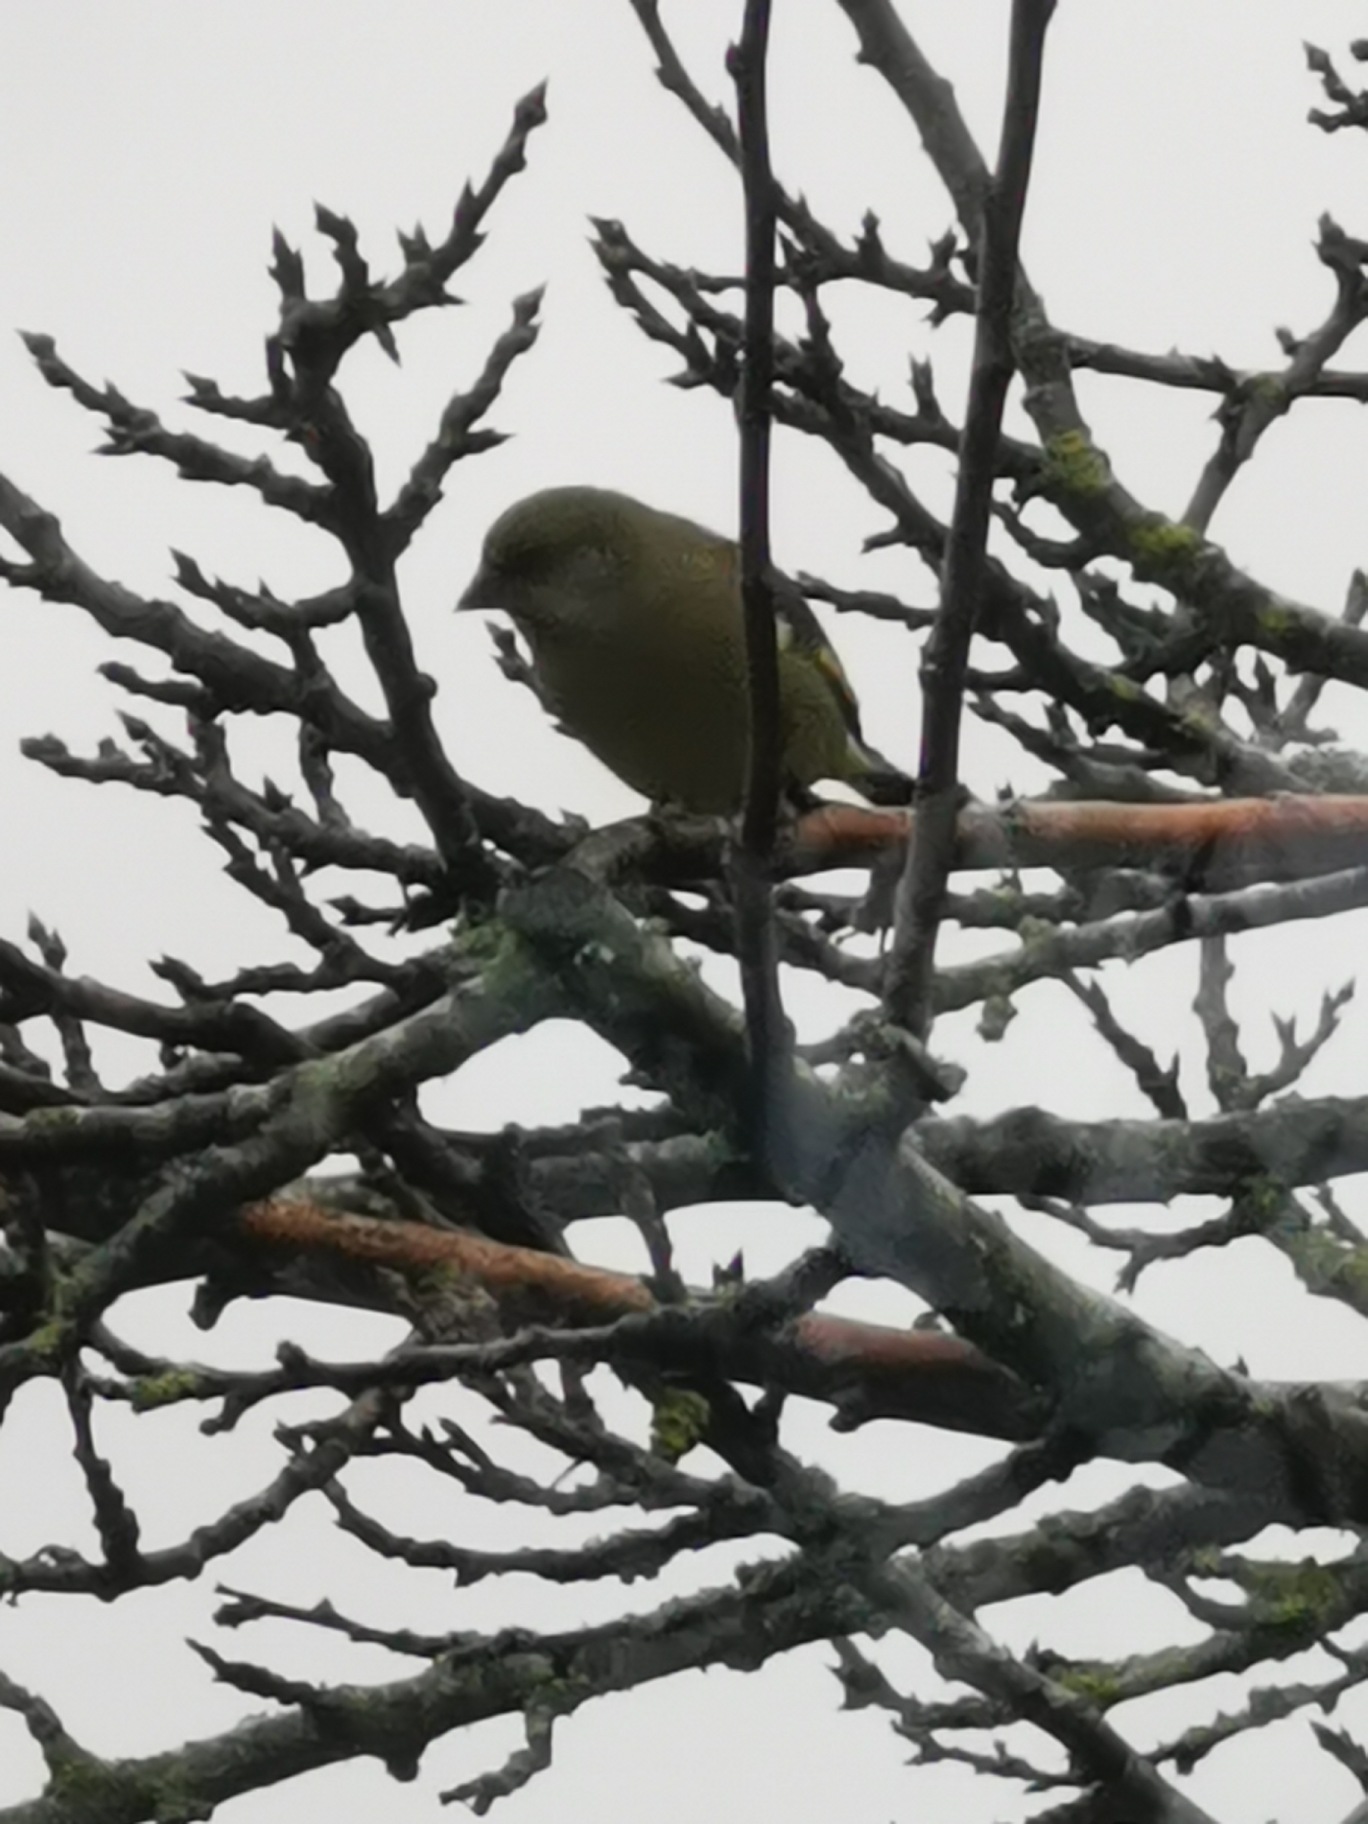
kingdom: Plantae
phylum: Tracheophyta
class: Liliopsida
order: Poales
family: Poaceae
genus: Chloris
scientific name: Chloris chloris
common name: Grønirisk
